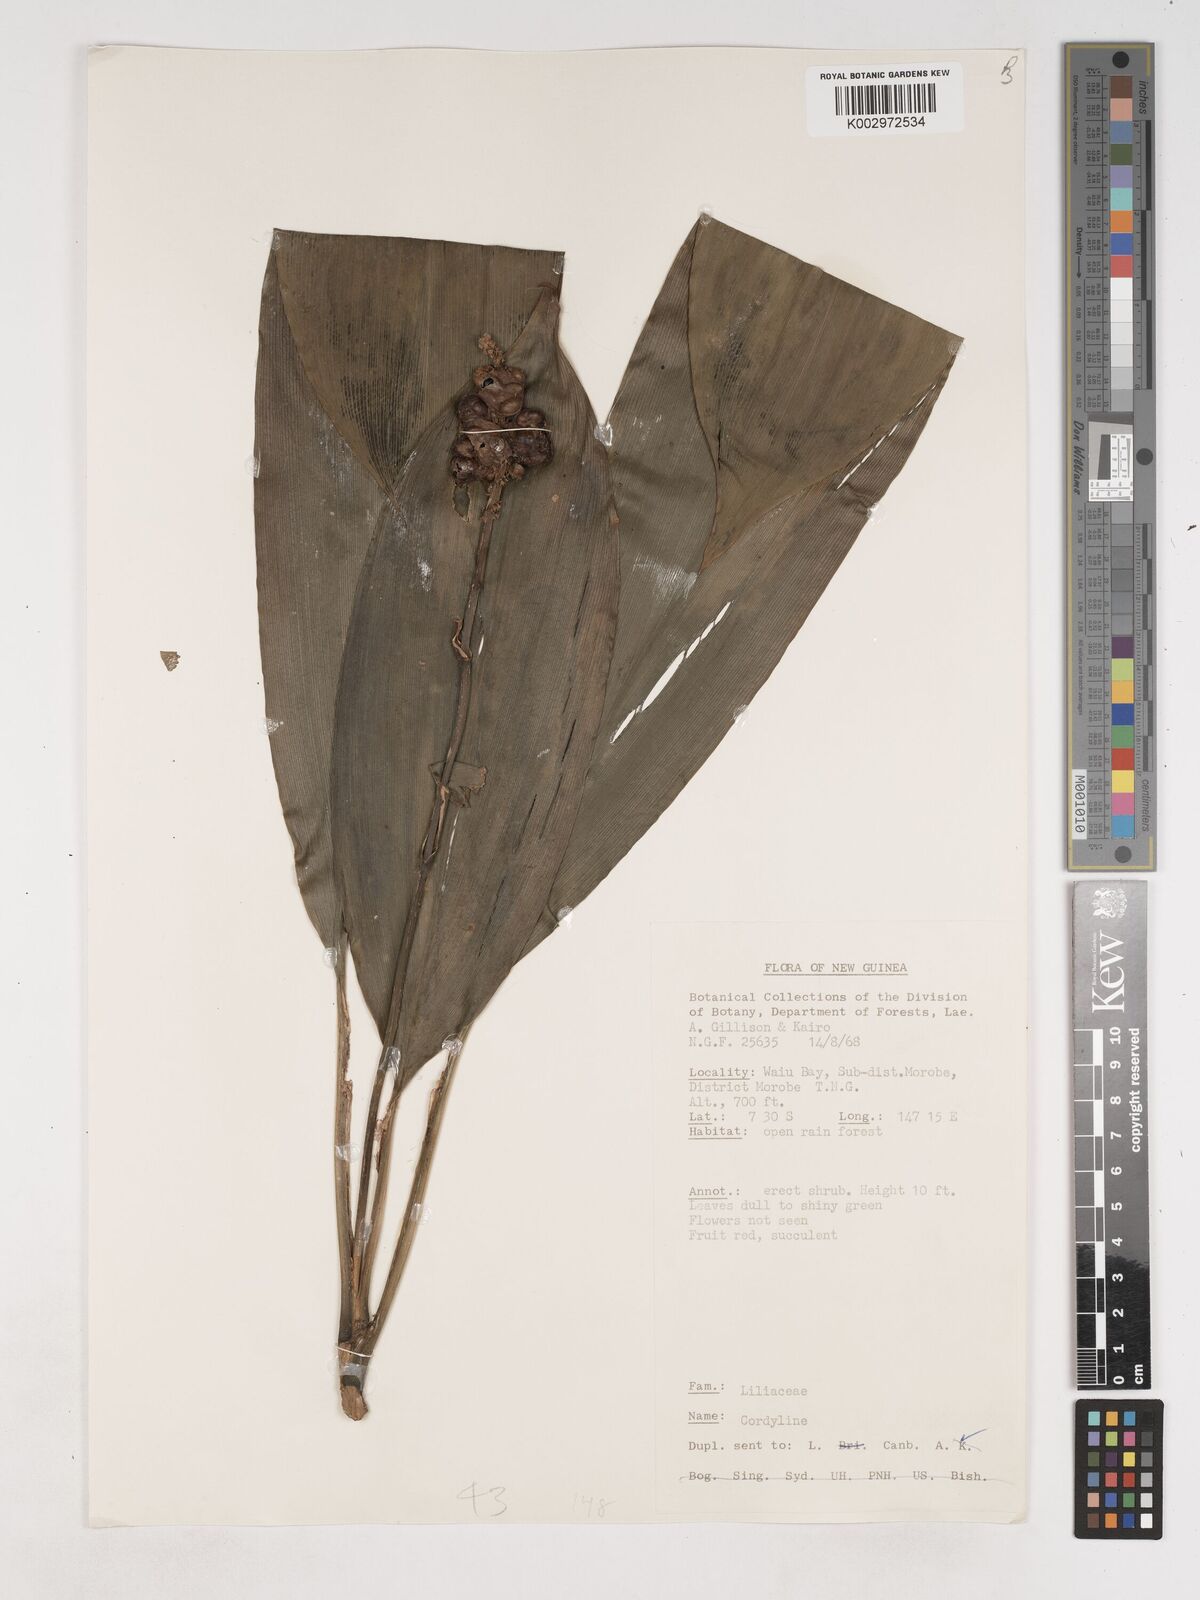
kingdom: Plantae
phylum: Tracheophyta
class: Liliopsida
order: Asparagales
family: Asparagaceae
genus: Cordyline
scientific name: Cordyline
